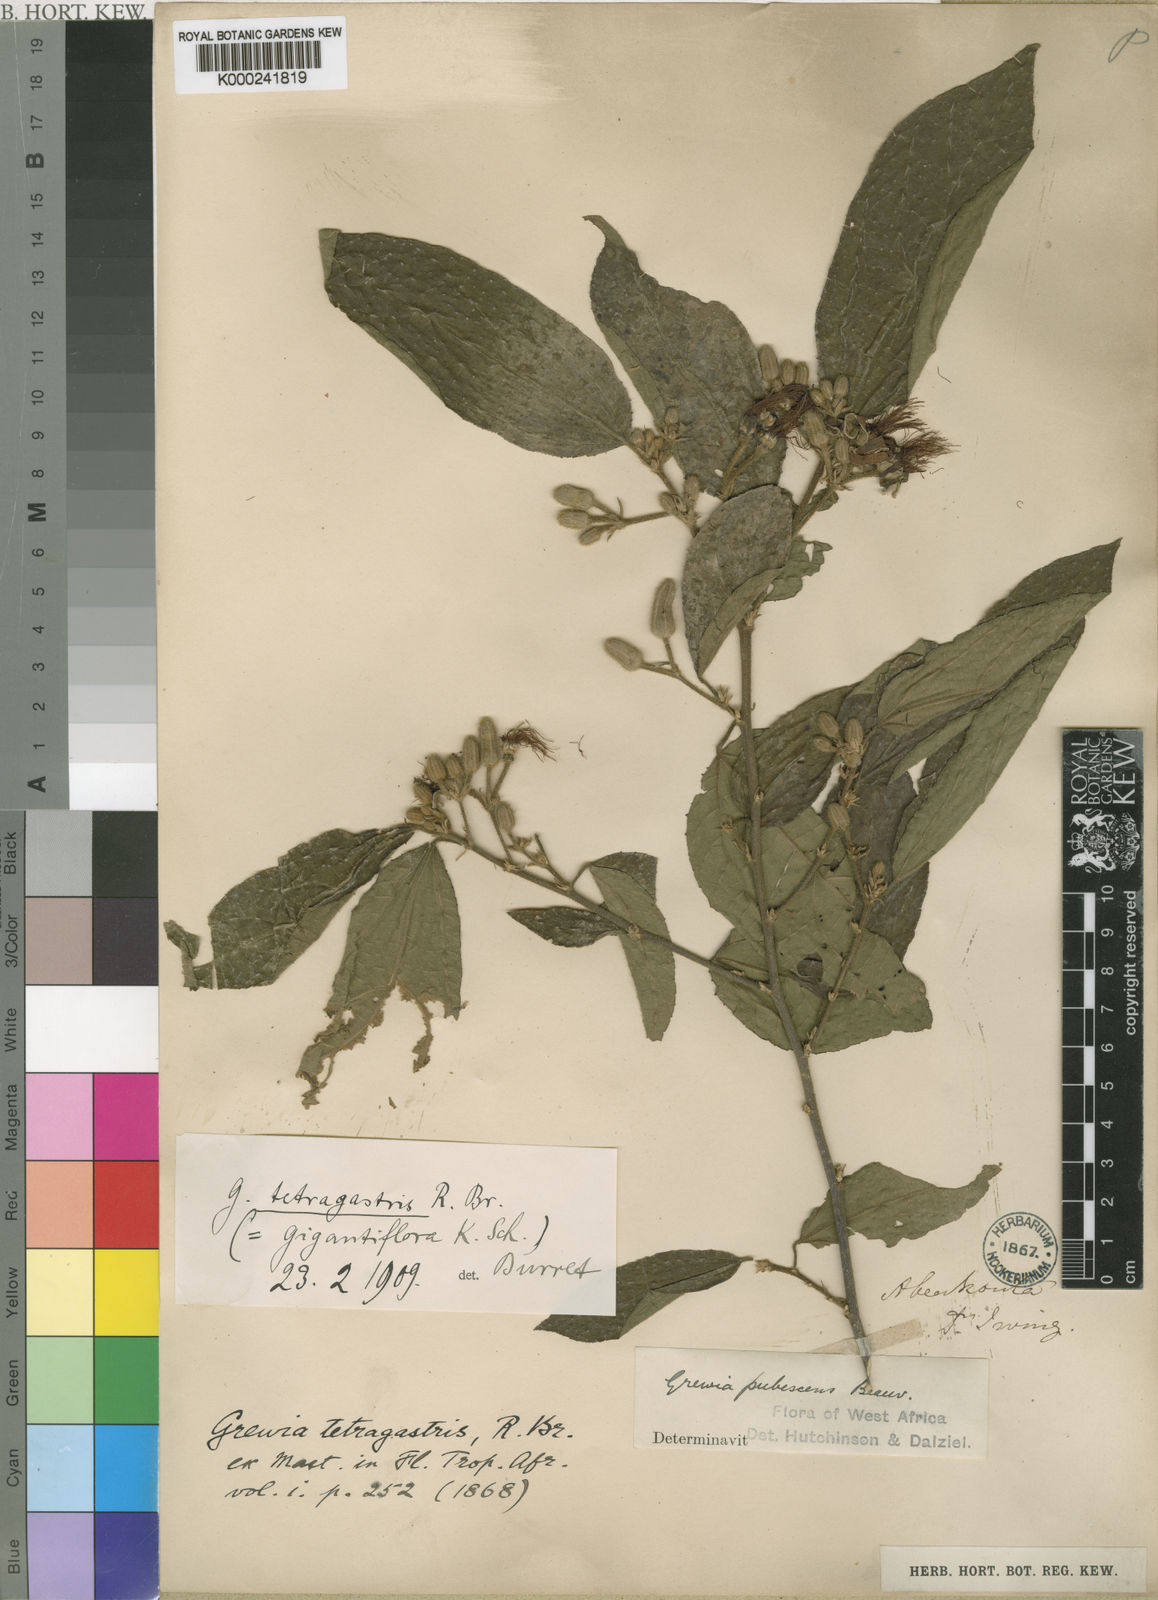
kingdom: Plantae
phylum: Tracheophyta
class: Magnoliopsida
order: Malvales
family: Malvaceae
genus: Grewia
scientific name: Grewia pubescens
